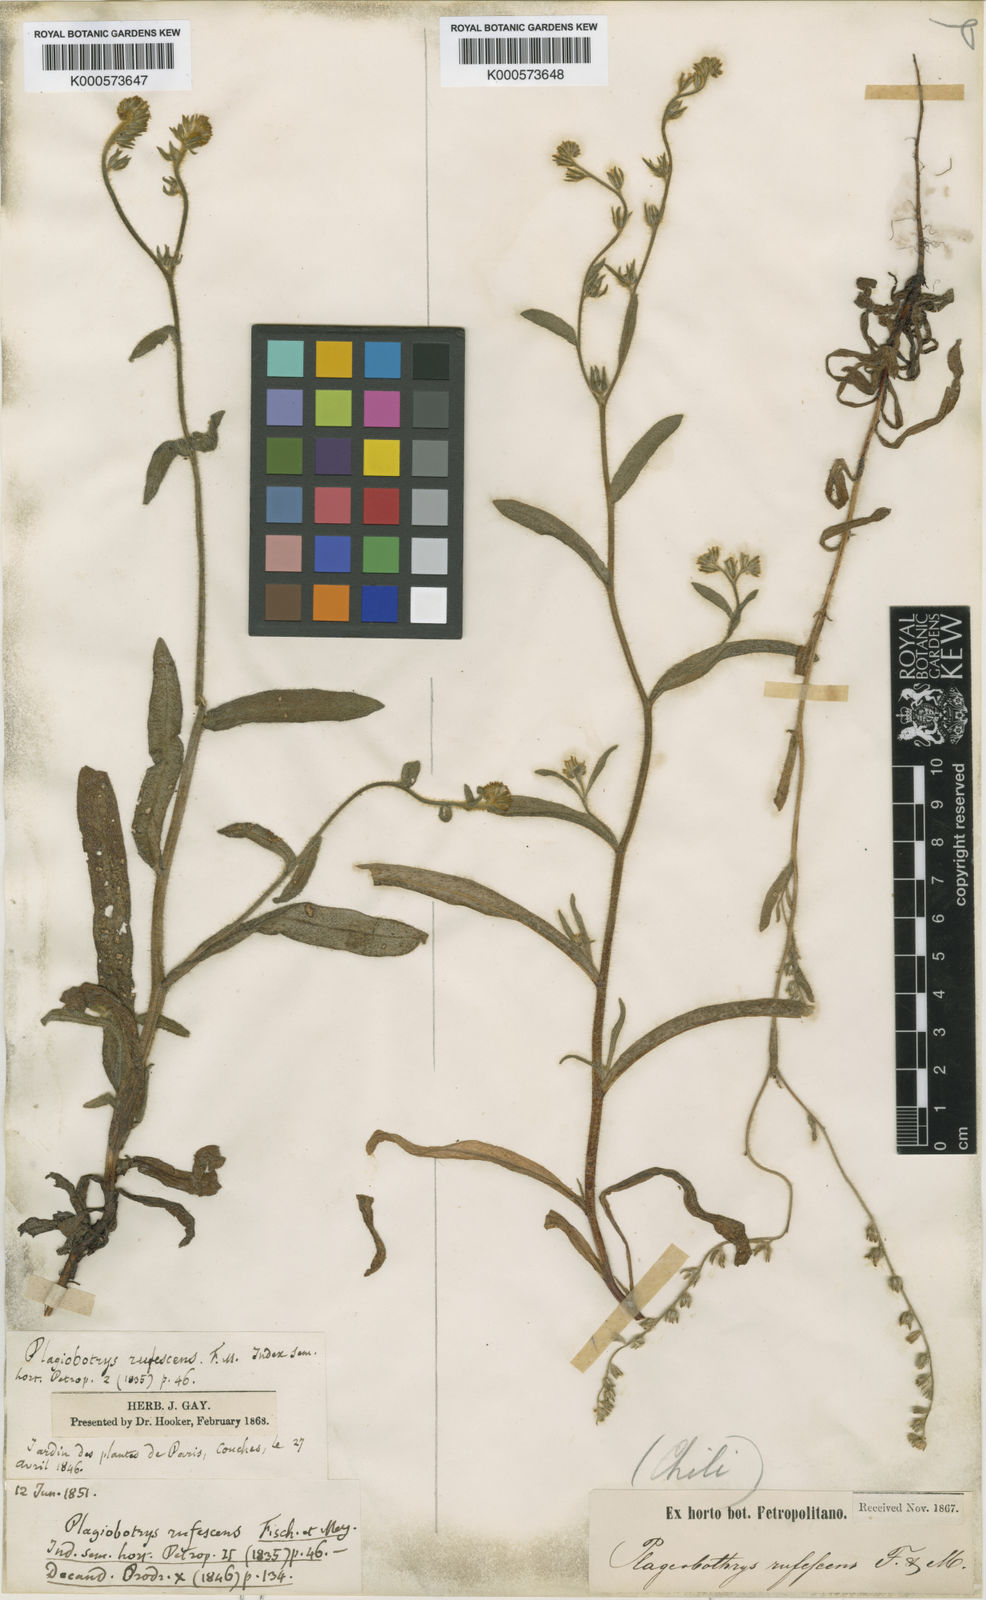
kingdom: Plantae
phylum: Tracheophyta
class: Magnoliopsida
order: Boraginales
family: Boraginaceae
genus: Plagiobothrys
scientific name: Plagiobothrys fulvus
